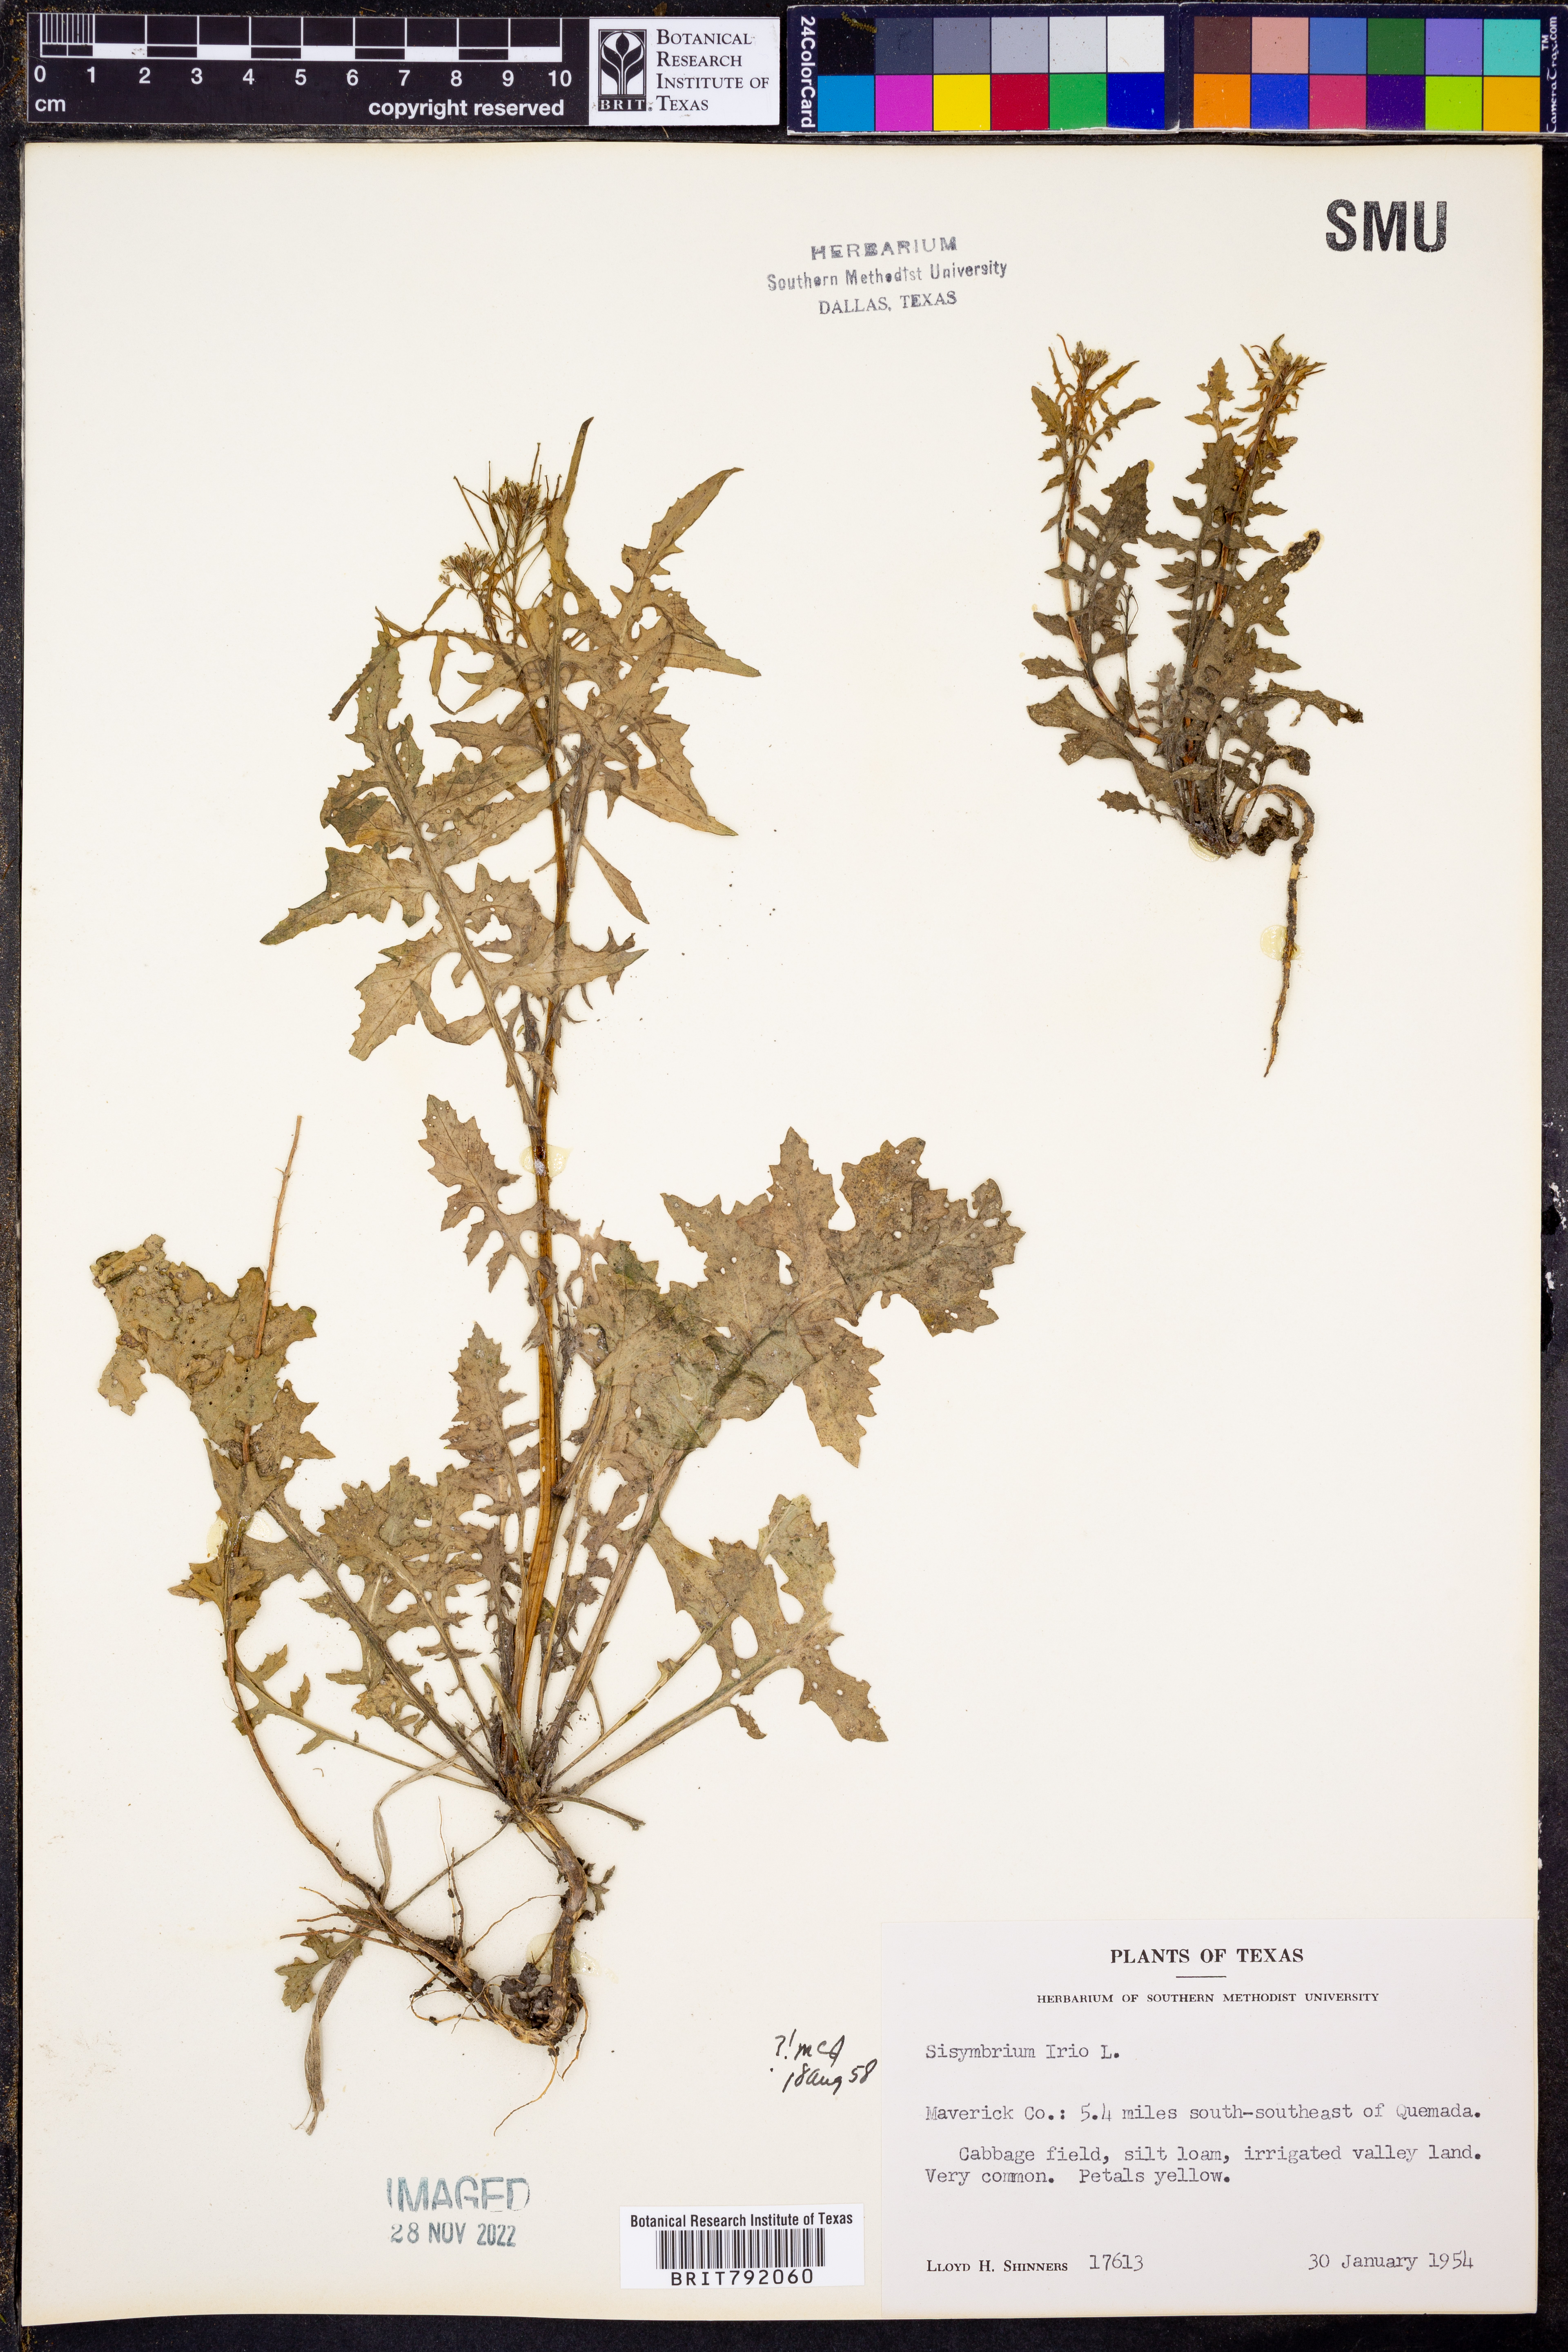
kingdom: Plantae
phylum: Tracheophyta
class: Magnoliopsida
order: Brassicales
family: Brassicaceae
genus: Sisymbrium
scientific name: Sisymbrium irio
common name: London rocket
